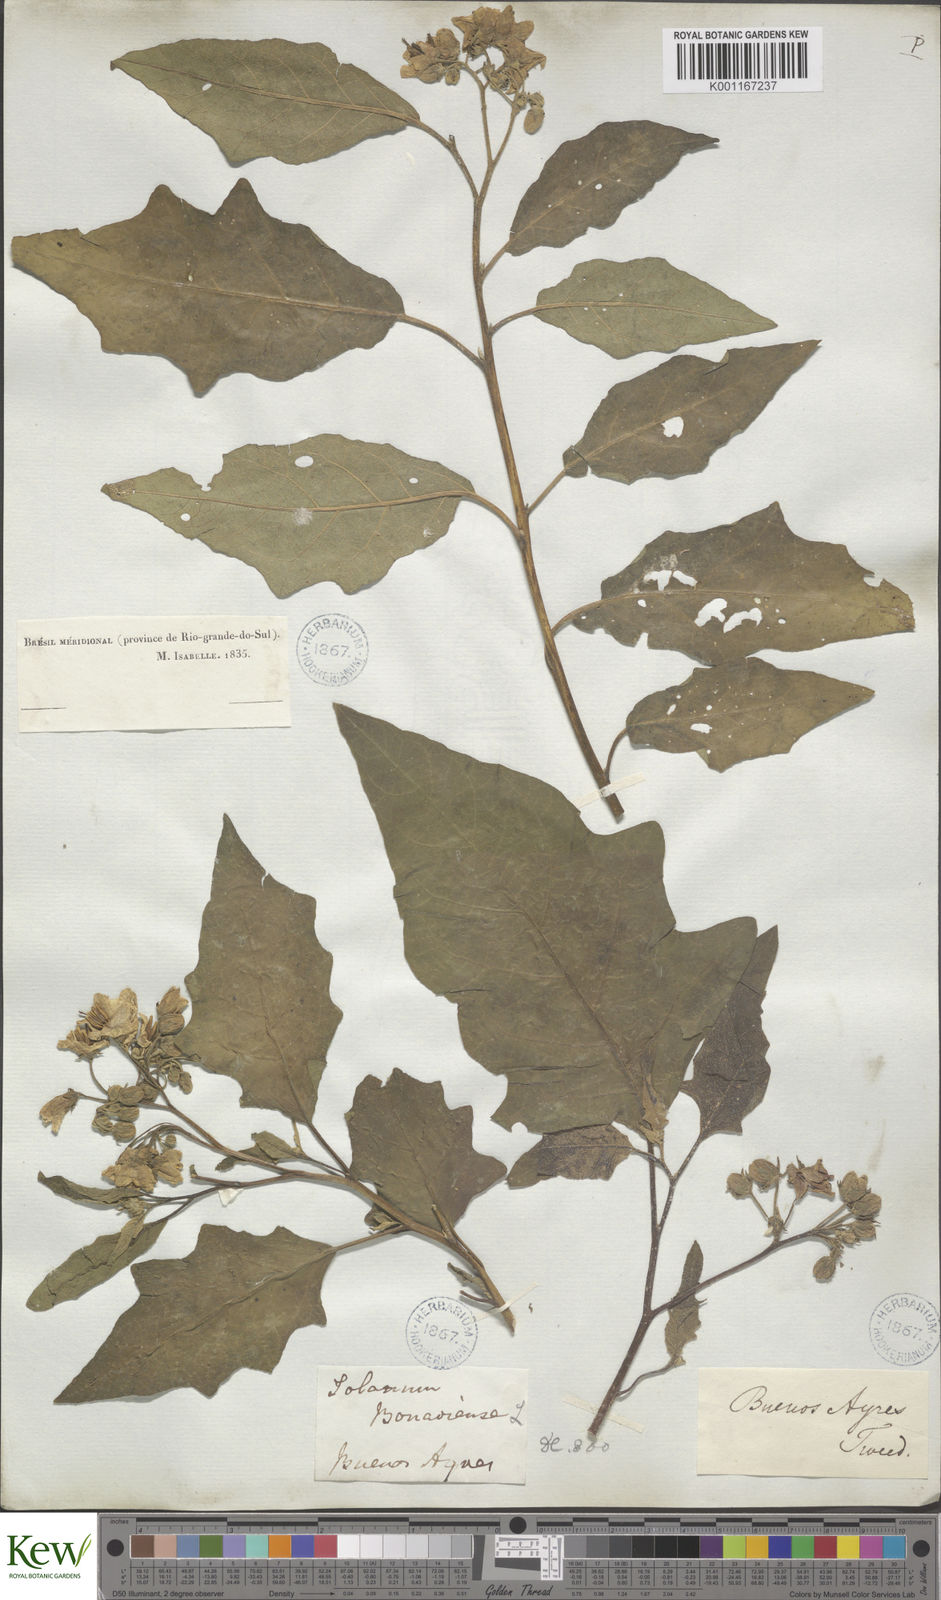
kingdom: Plantae
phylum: Tracheophyta
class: Magnoliopsida
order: Solanales
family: Solanaceae
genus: Solanum
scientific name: Solanum bonariense
